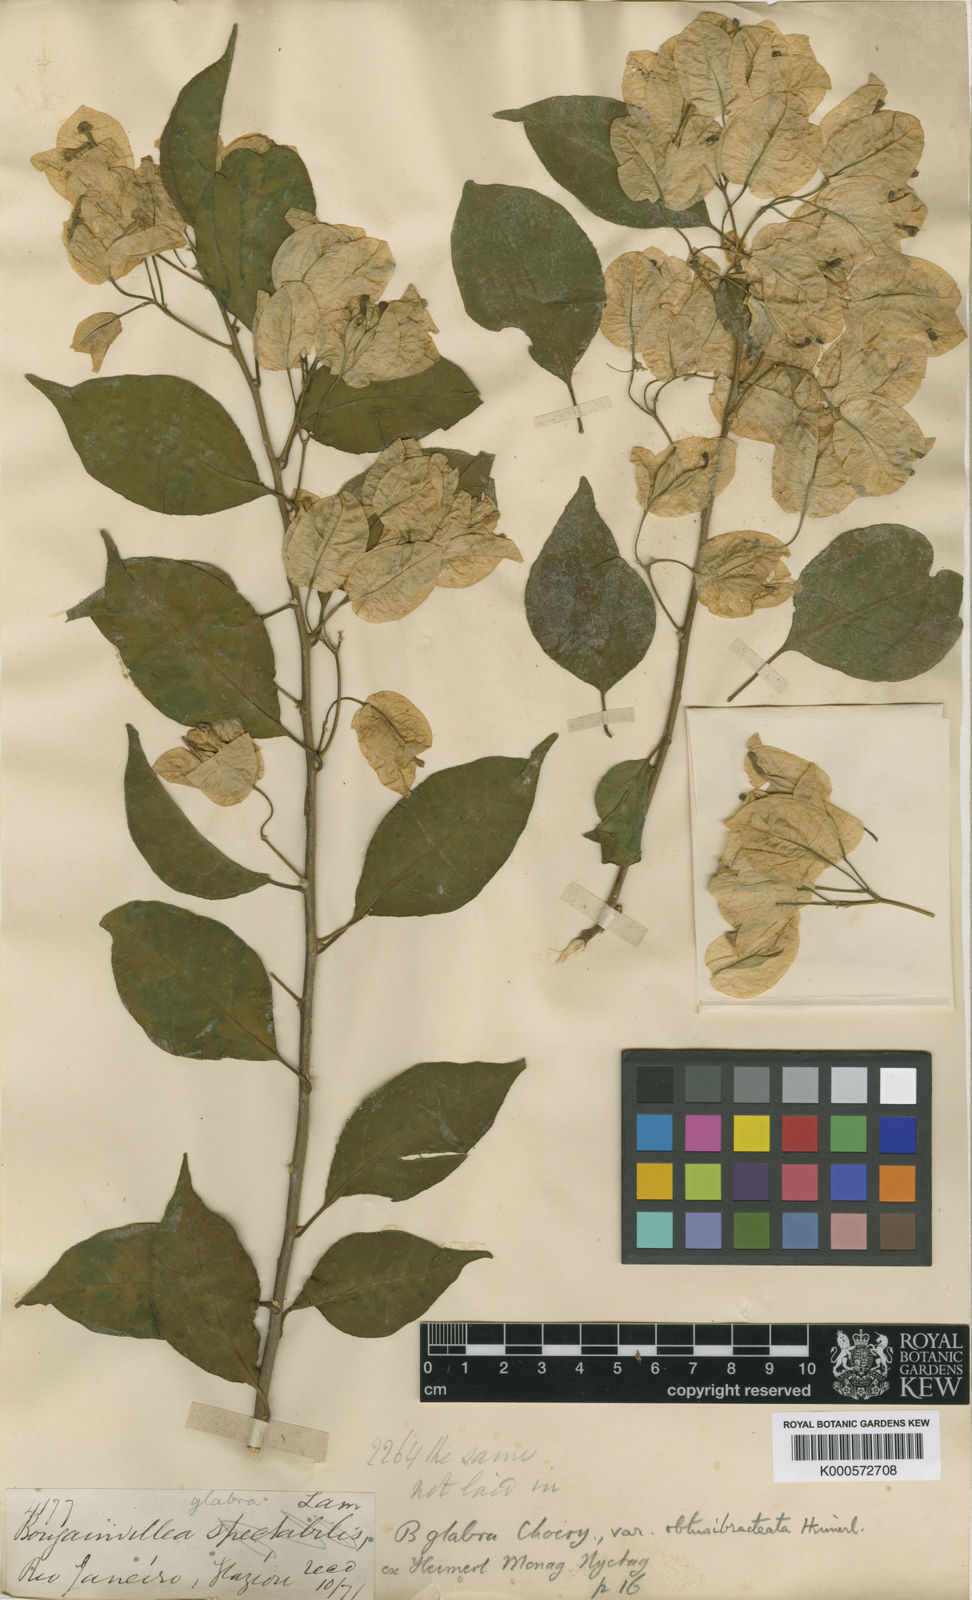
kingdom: Plantae
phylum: Tracheophyta
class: Magnoliopsida
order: Caryophyllales
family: Nyctaginaceae
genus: Bougainvillea
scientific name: Bougainvillea glabra
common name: Paperflower
